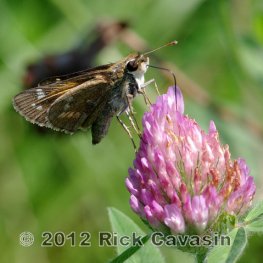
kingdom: Animalia
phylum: Arthropoda
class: Insecta
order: Lepidoptera
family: Hesperiidae
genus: Atalopedes
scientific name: Atalopedes campestris
